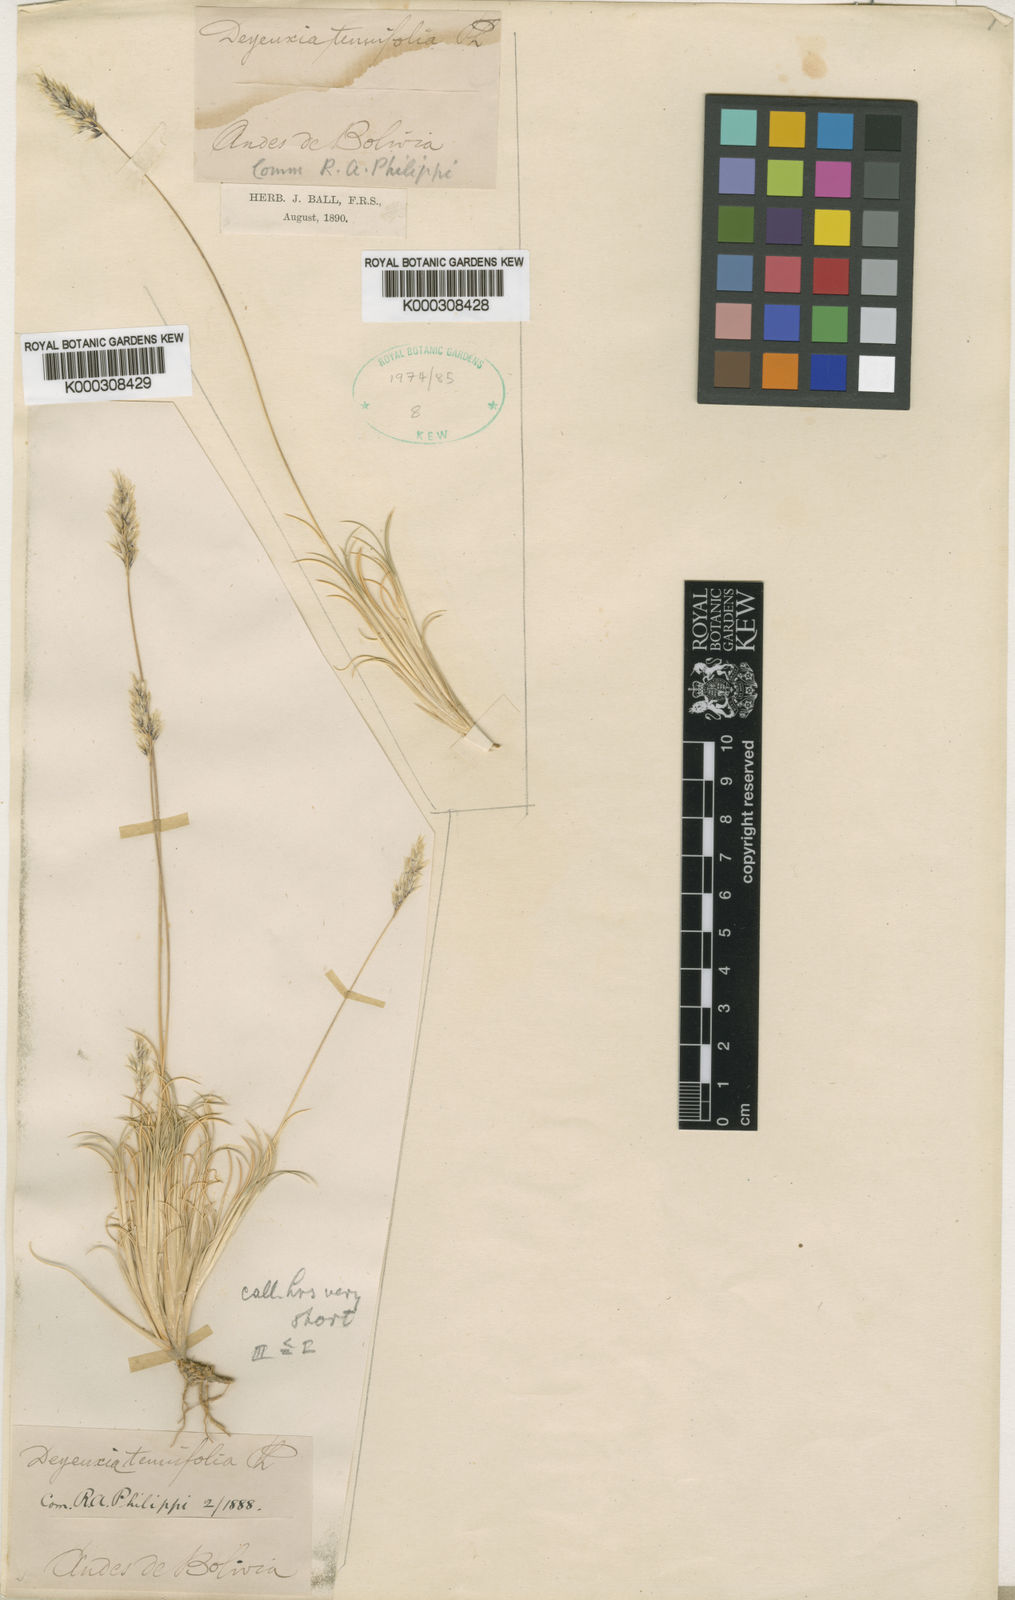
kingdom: Plantae
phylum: Tracheophyta
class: Liliopsida
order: Poales
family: Poaceae
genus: Cinnagrostis
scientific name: Cinnagrostis curvula
